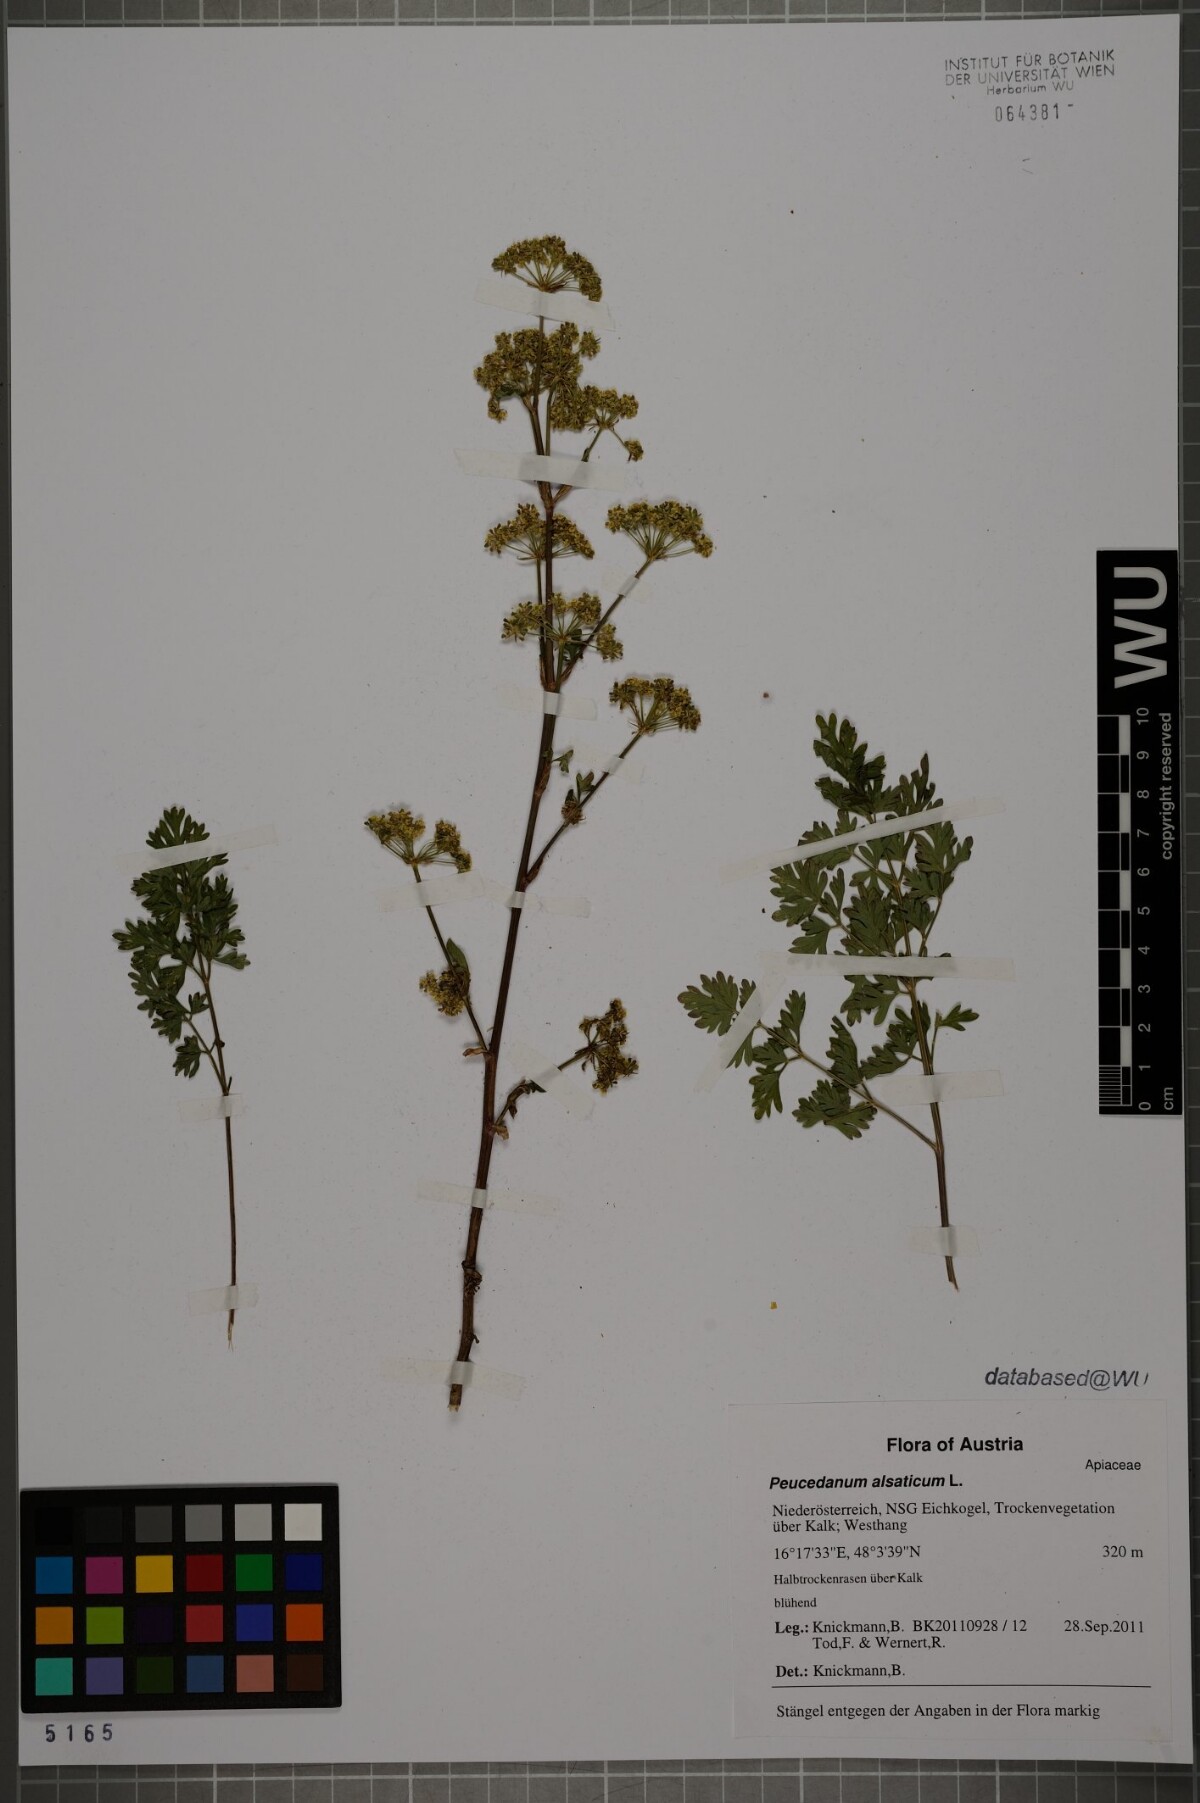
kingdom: Plantae
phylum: Tracheophyta
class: Magnoliopsida
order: Apiales
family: Apiaceae
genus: Xanthoselinum
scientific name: Xanthoselinum alsaticum
